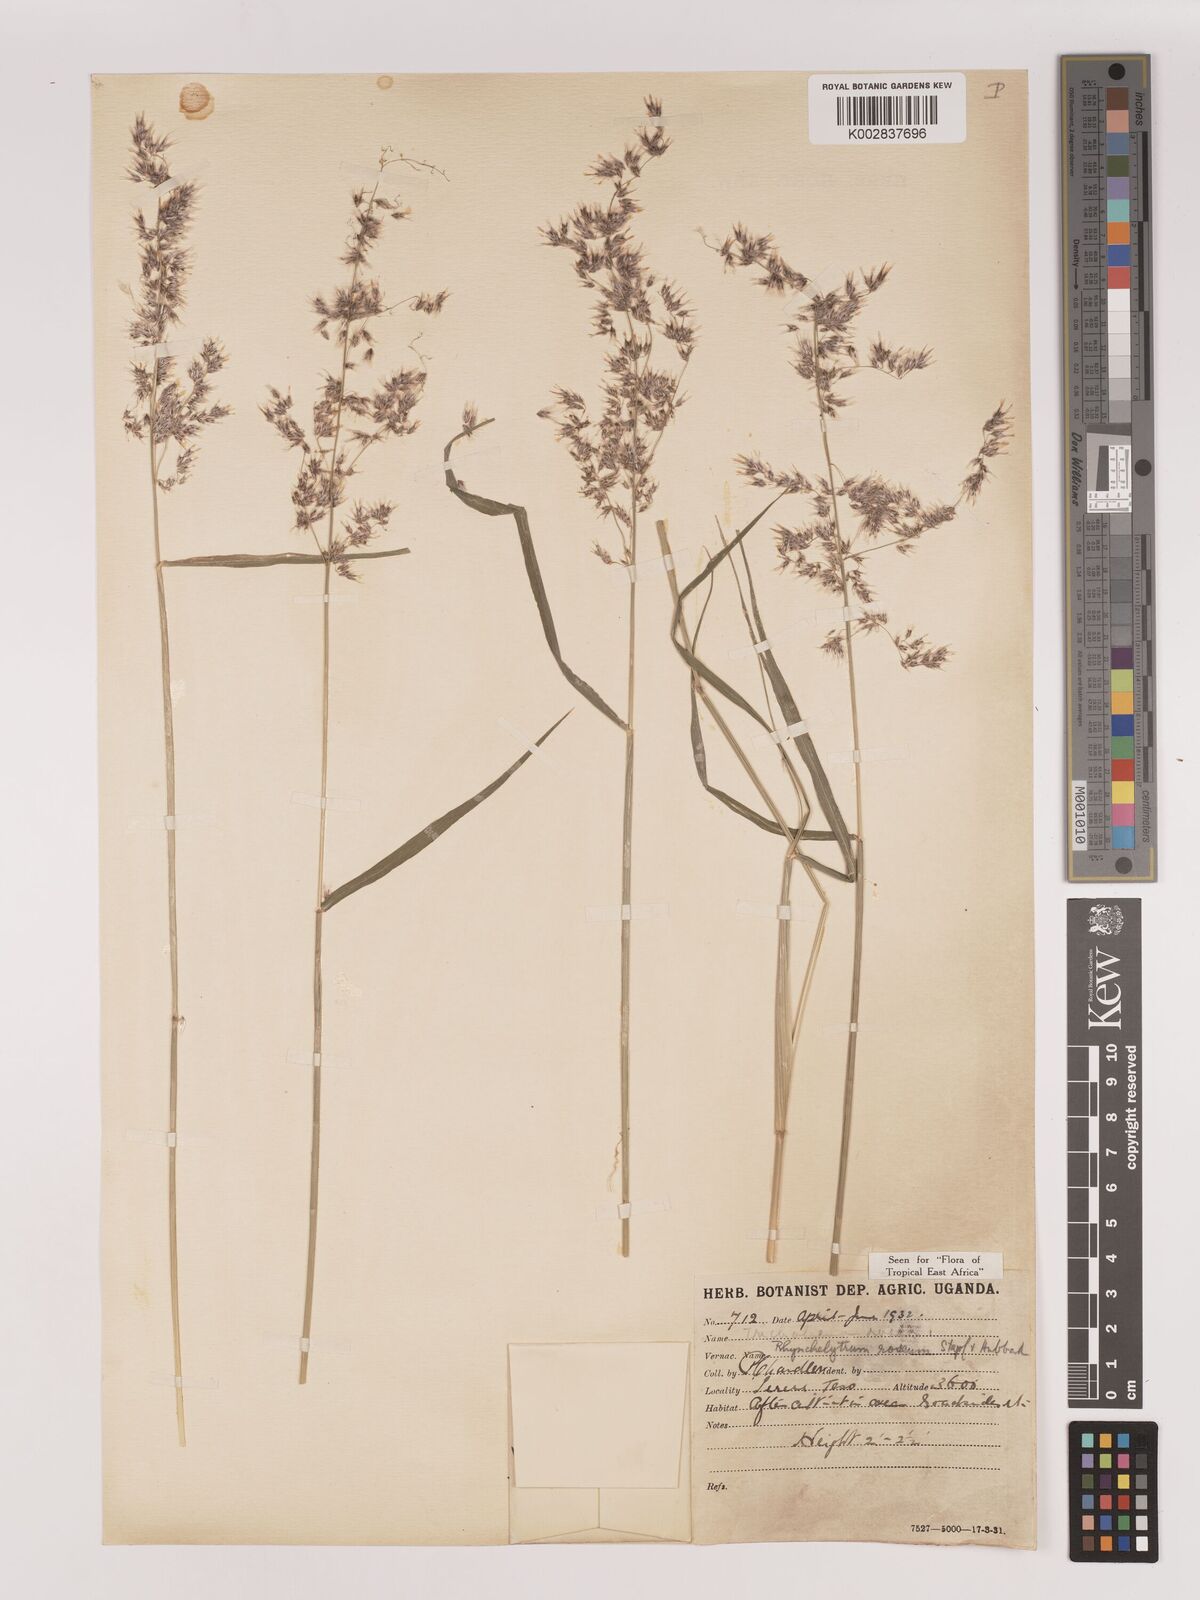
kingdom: Plantae
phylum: Tracheophyta
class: Liliopsida
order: Poales
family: Poaceae
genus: Melinis
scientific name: Melinis repens
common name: Rose natal grass
